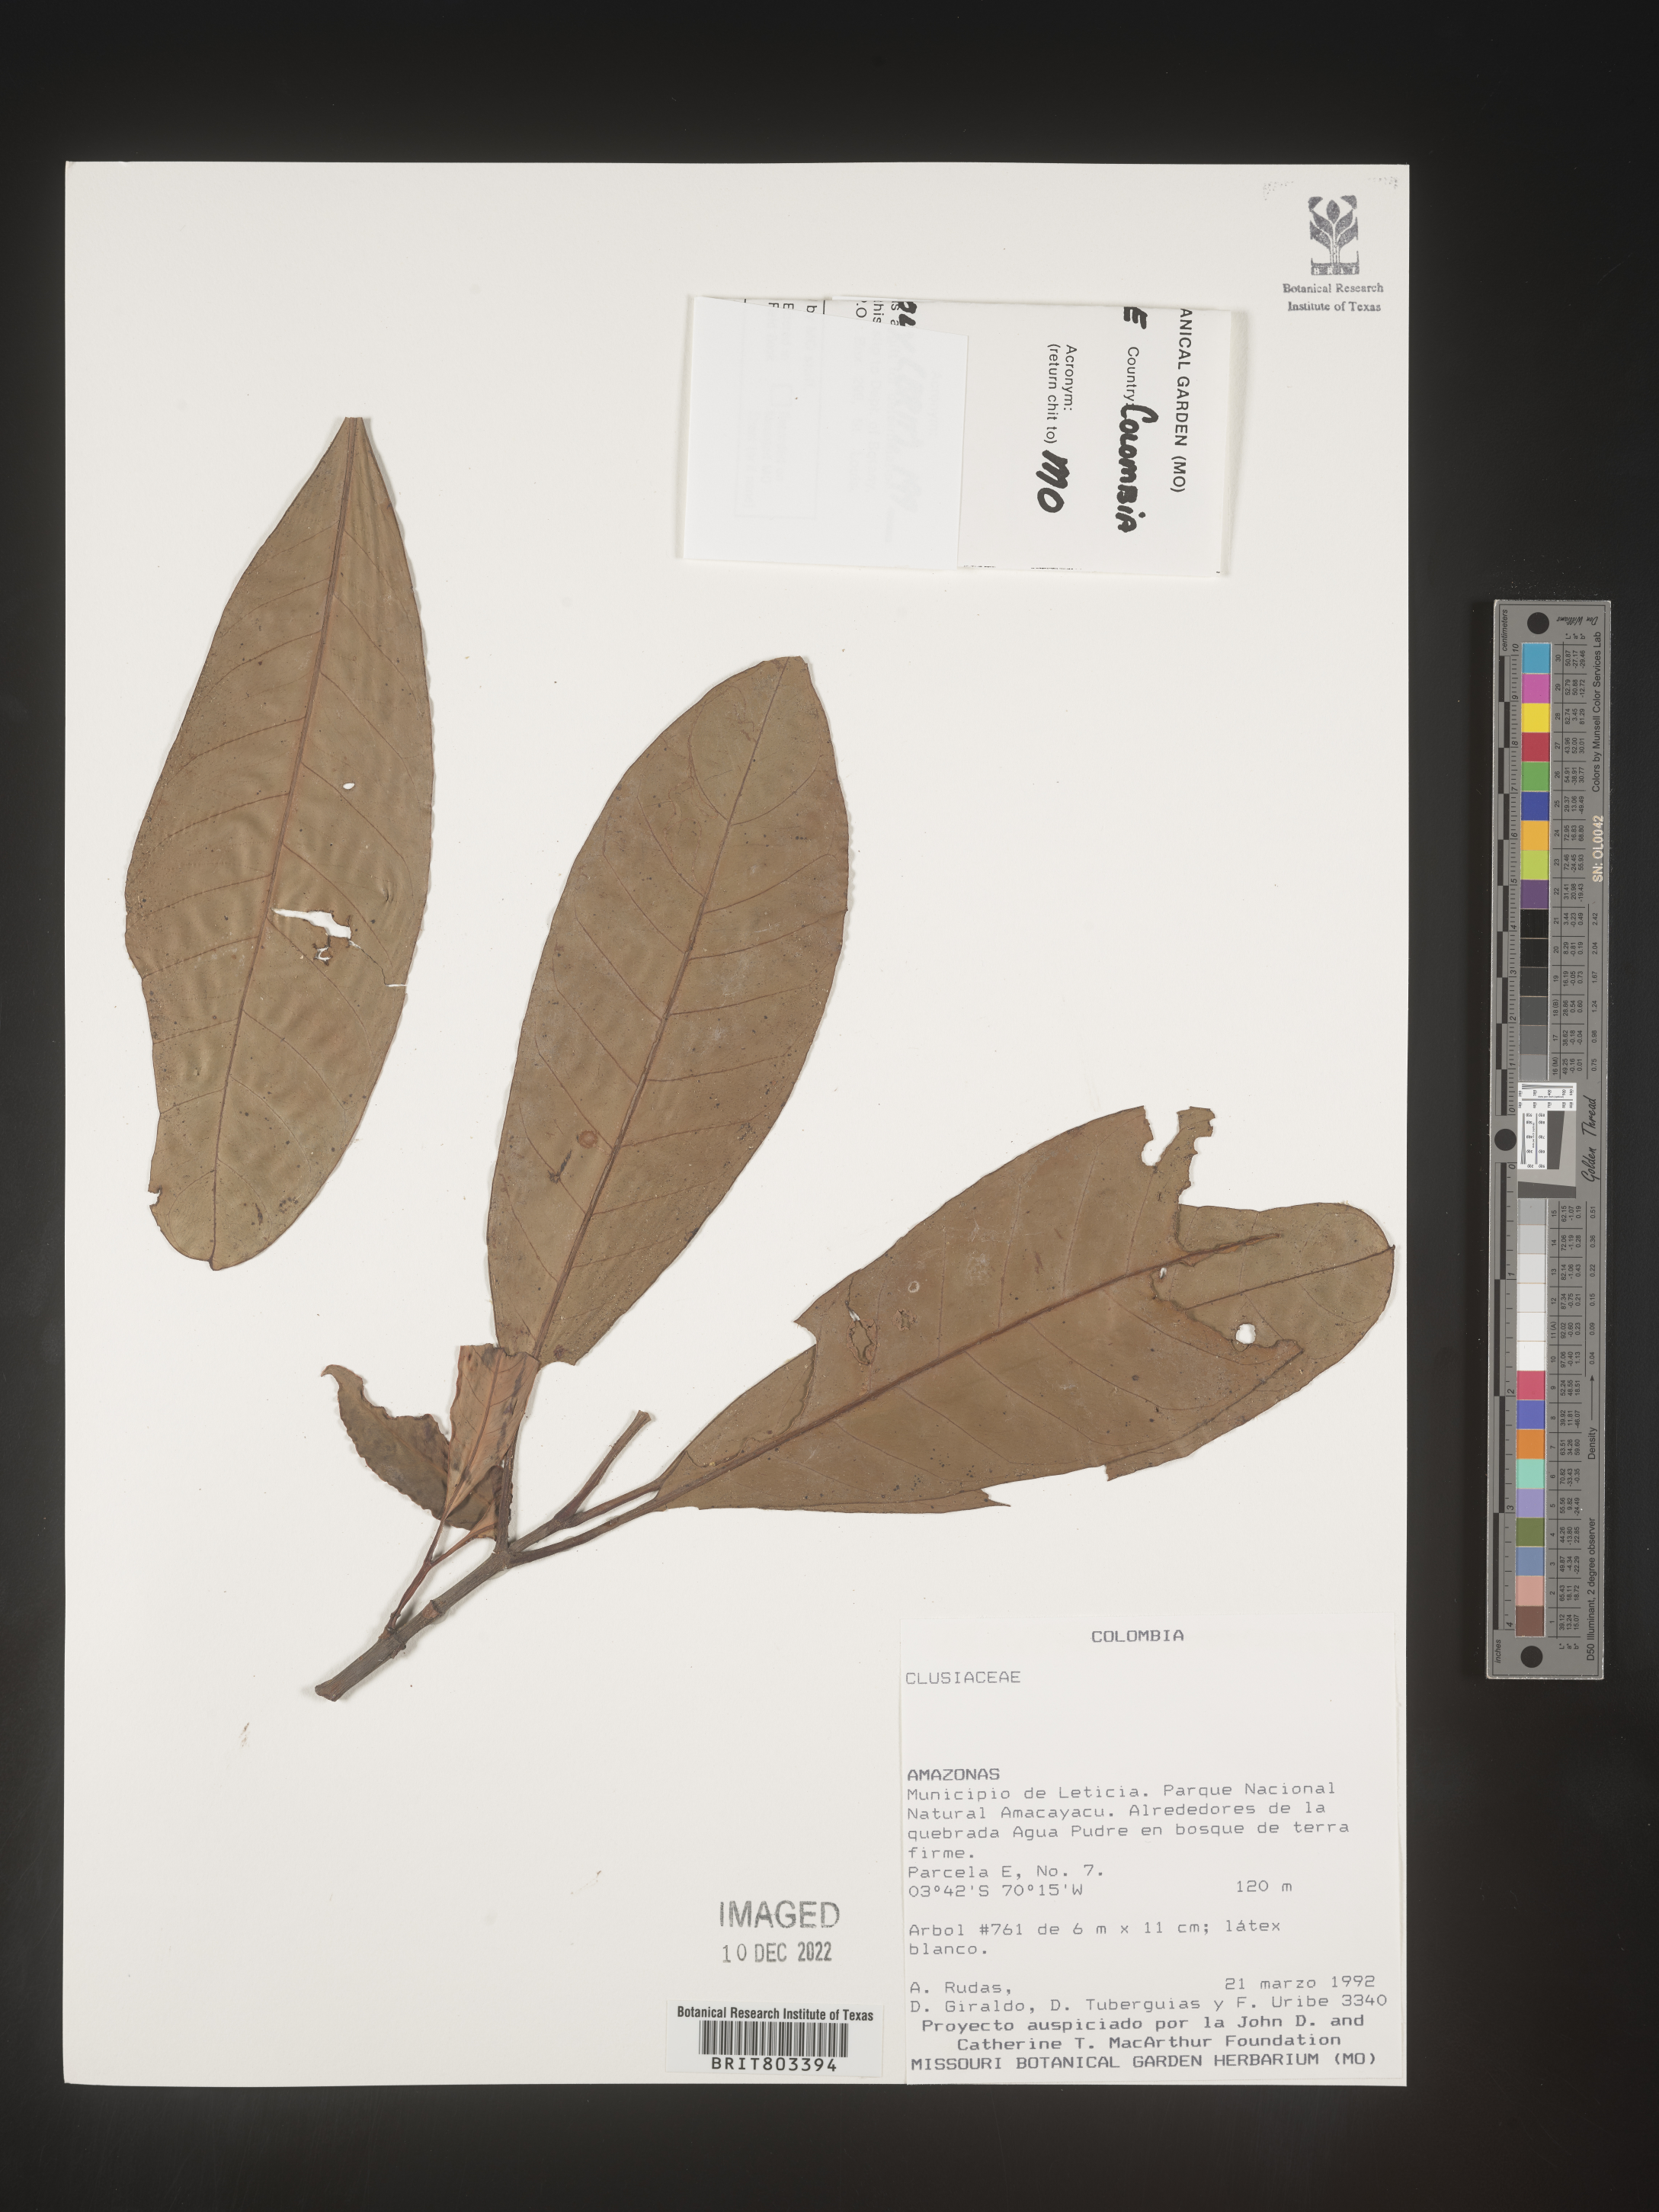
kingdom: Plantae
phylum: Tracheophyta
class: Magnoliopsida
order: Malpighiales
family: Clusiaceae
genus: Tovomita
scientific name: Tovomita
